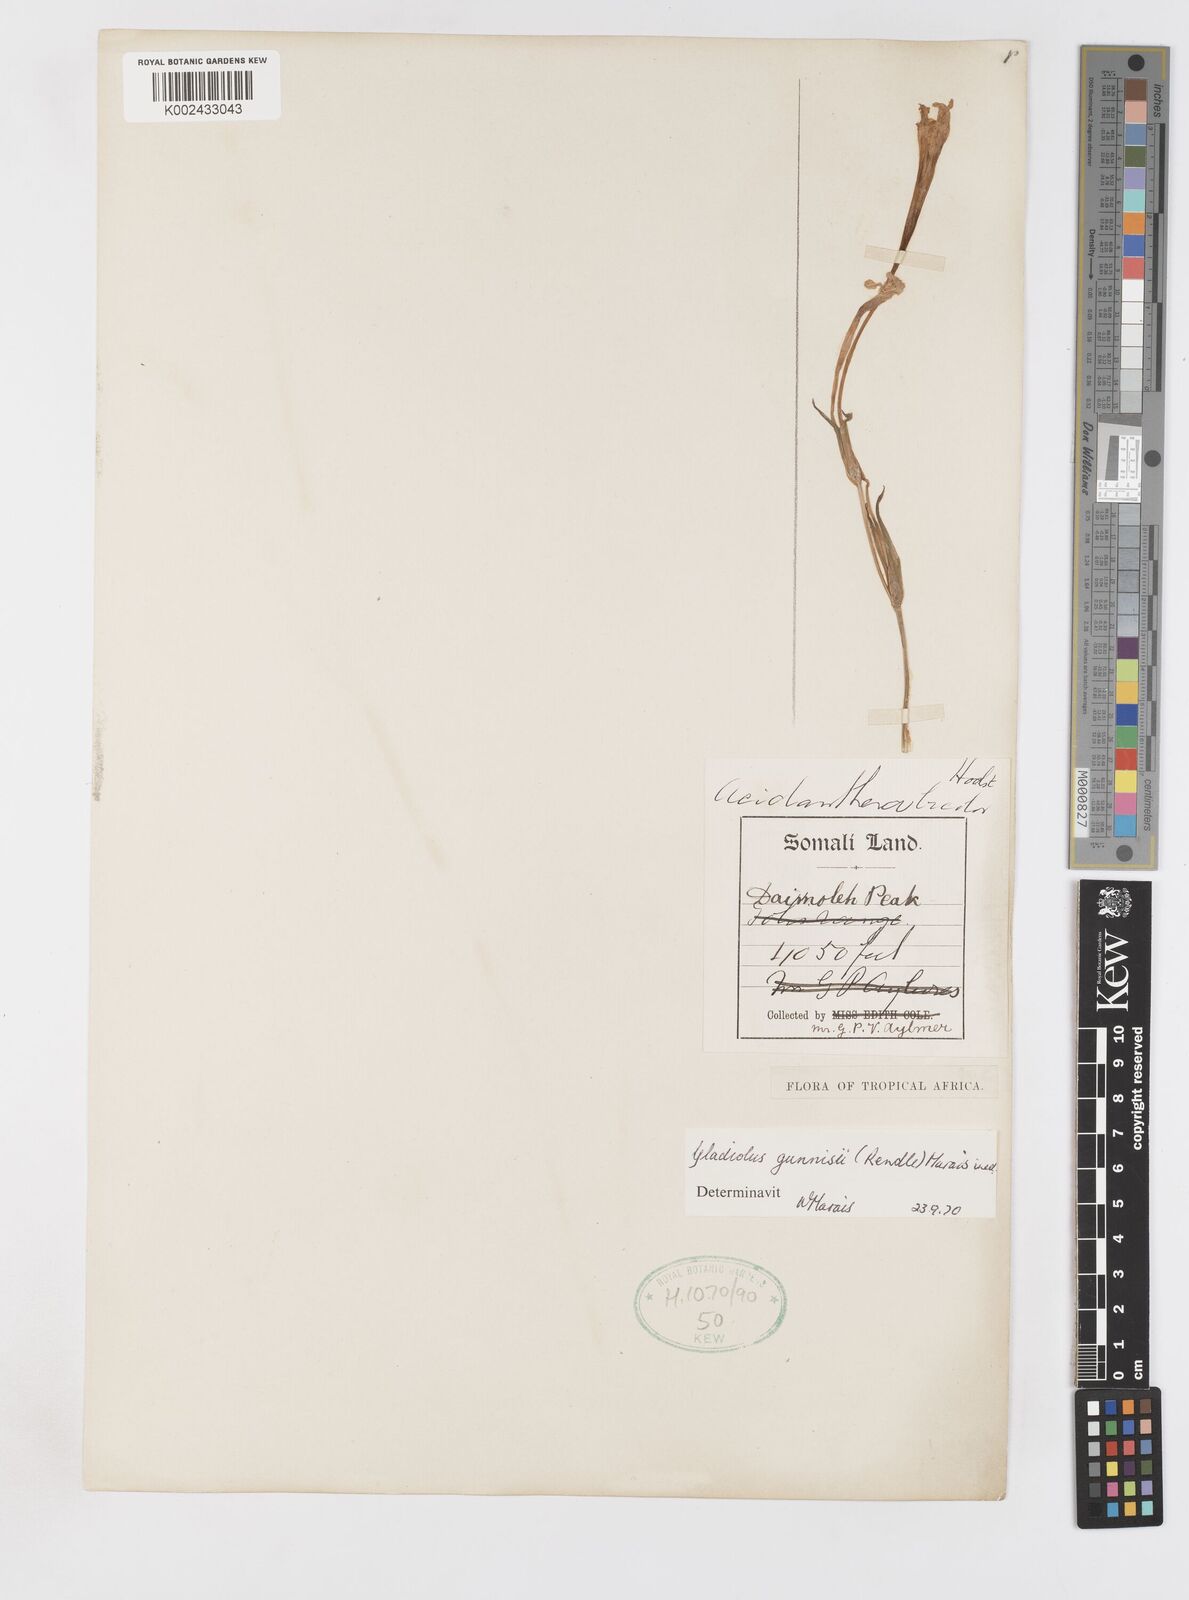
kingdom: Plantae
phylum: Tracheophyta
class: Liliopsida
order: Asparagales
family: Iridaceae
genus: Gladiolus
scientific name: Gladiolus gunnisii
